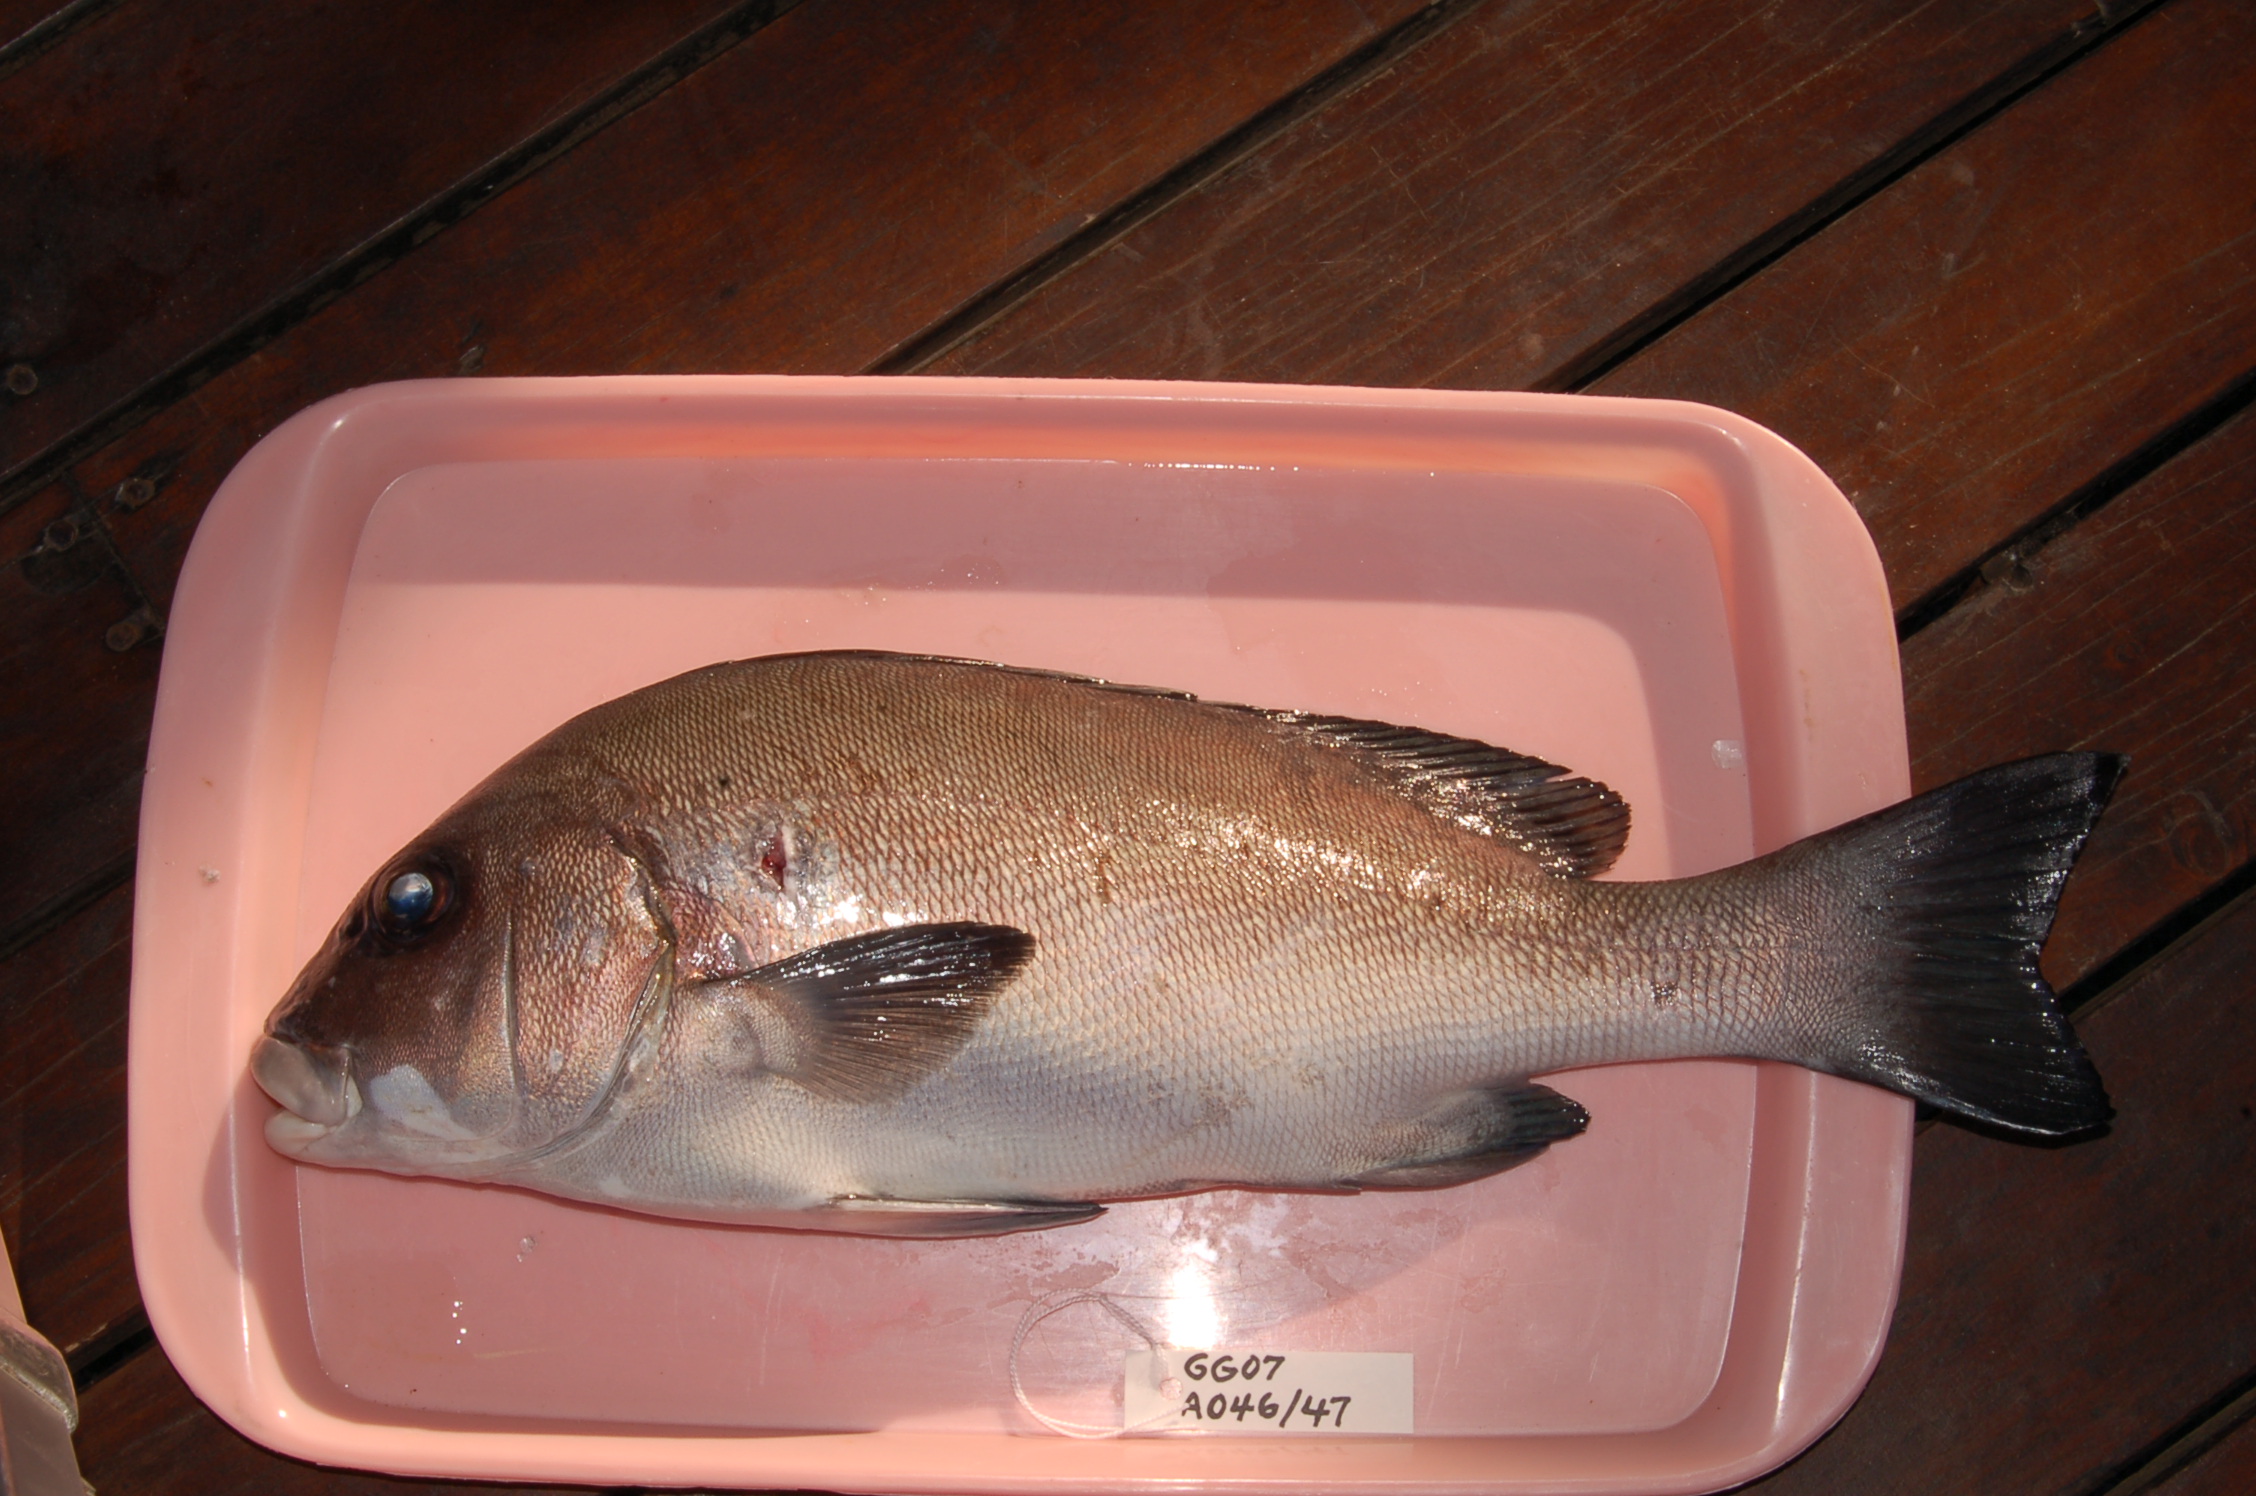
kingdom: Animalia
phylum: Chordata
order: Perciformes
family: Haemulidae
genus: Plectorhinchus
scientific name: Plectorhinchus chubbi
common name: Dusky rubberlip
